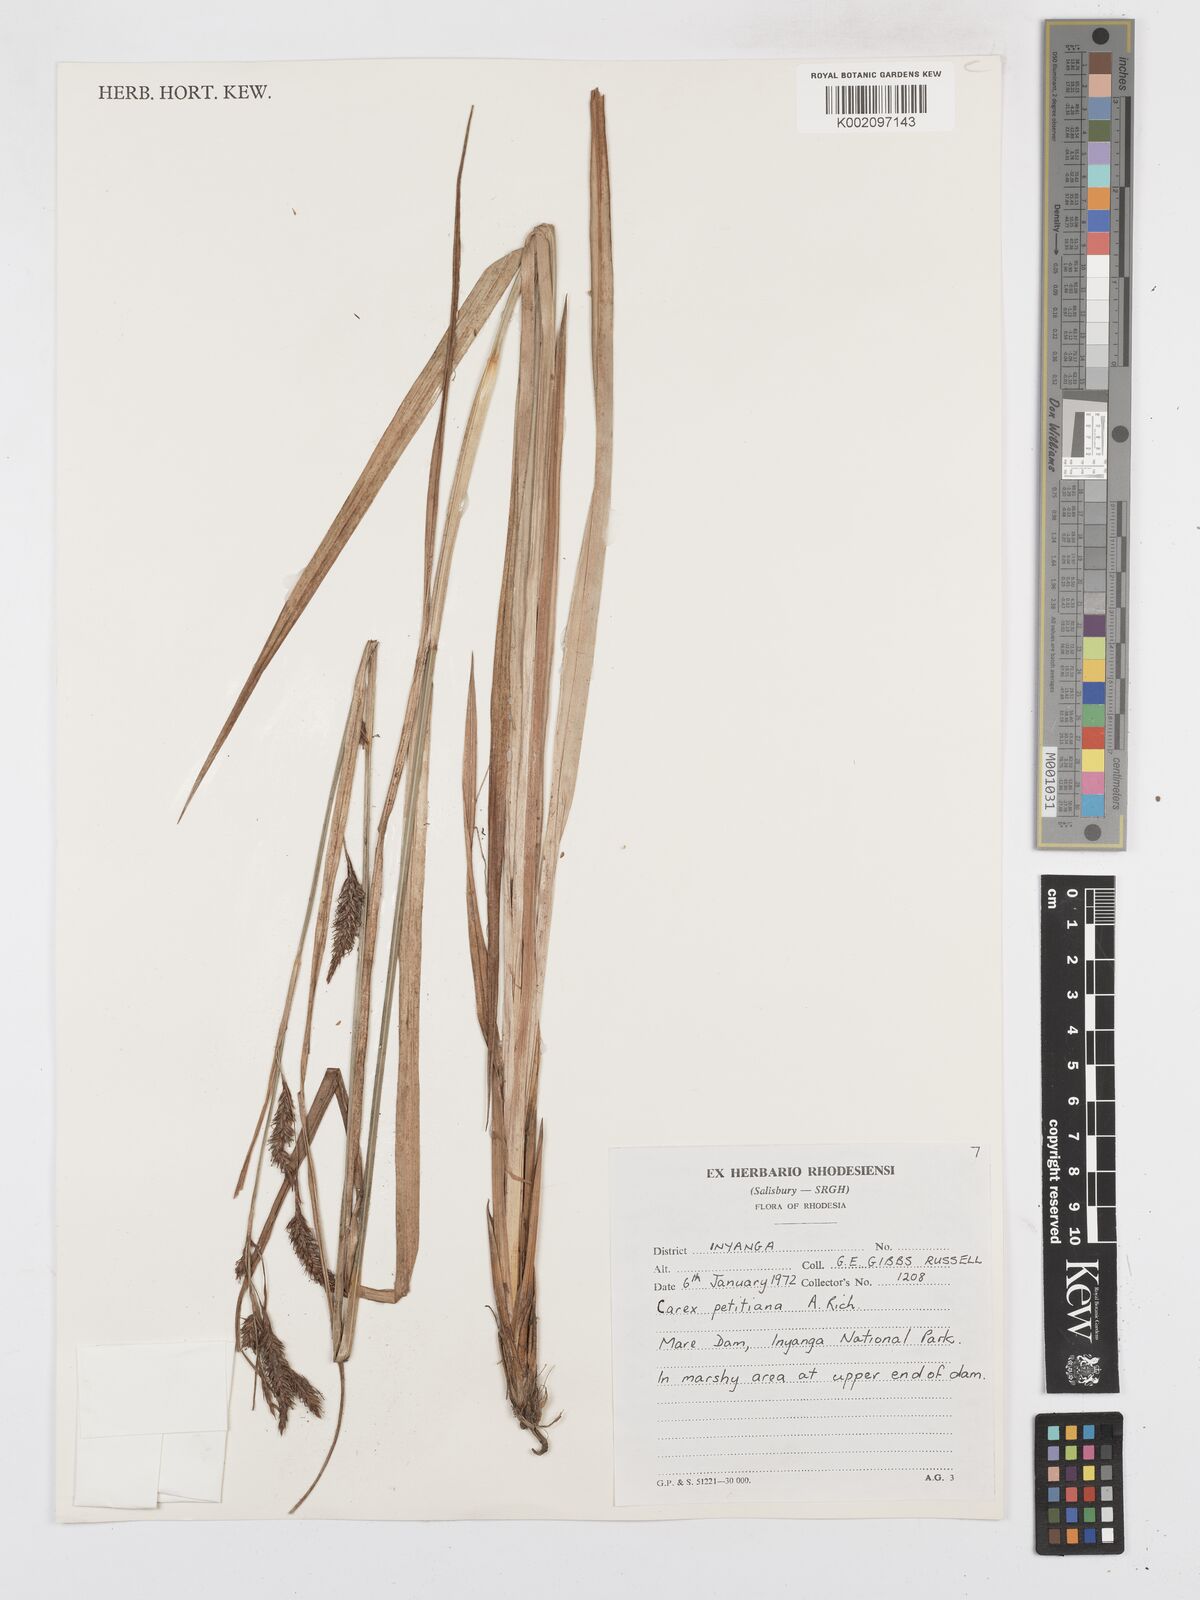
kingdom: Plantae
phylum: Tracheophyta
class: Liliopsida
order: Poales
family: Cyperaceae
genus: Carex
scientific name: Carex petitiana
